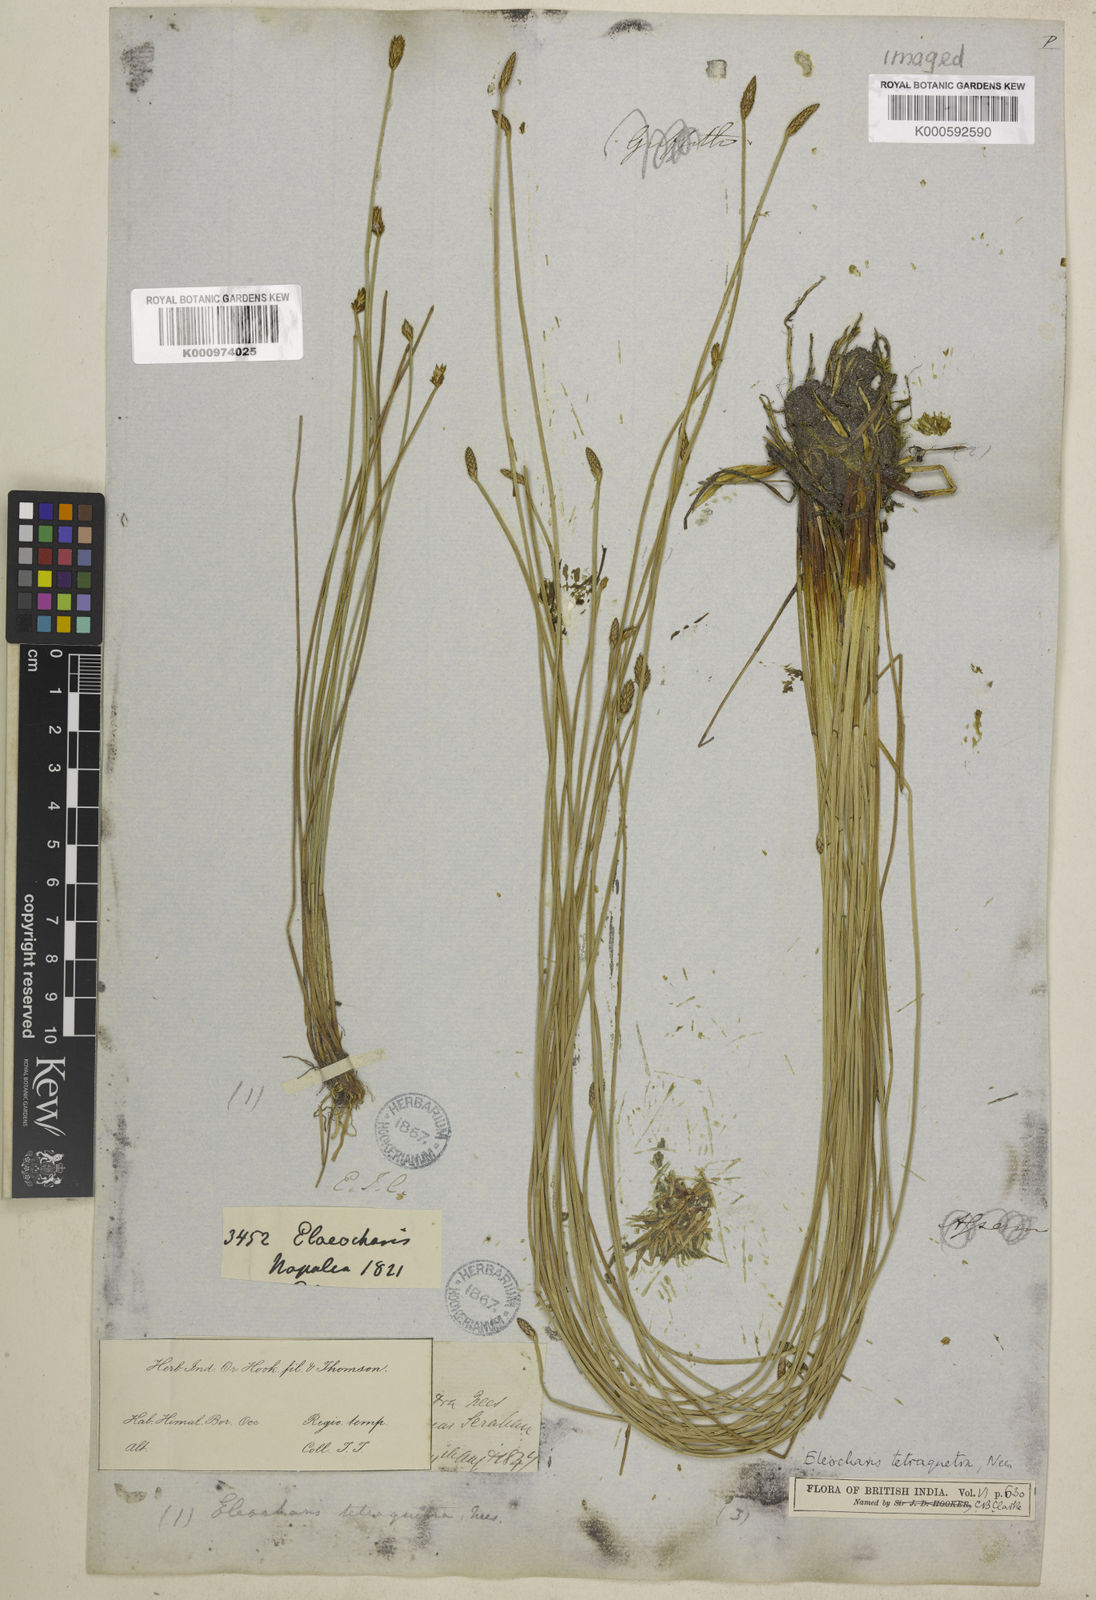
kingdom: Plantae
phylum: Tracheophyta
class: Liliopsida
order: Poales
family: Cyperaceae
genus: Eleocharis
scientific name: Eleocharis tetraquetra
